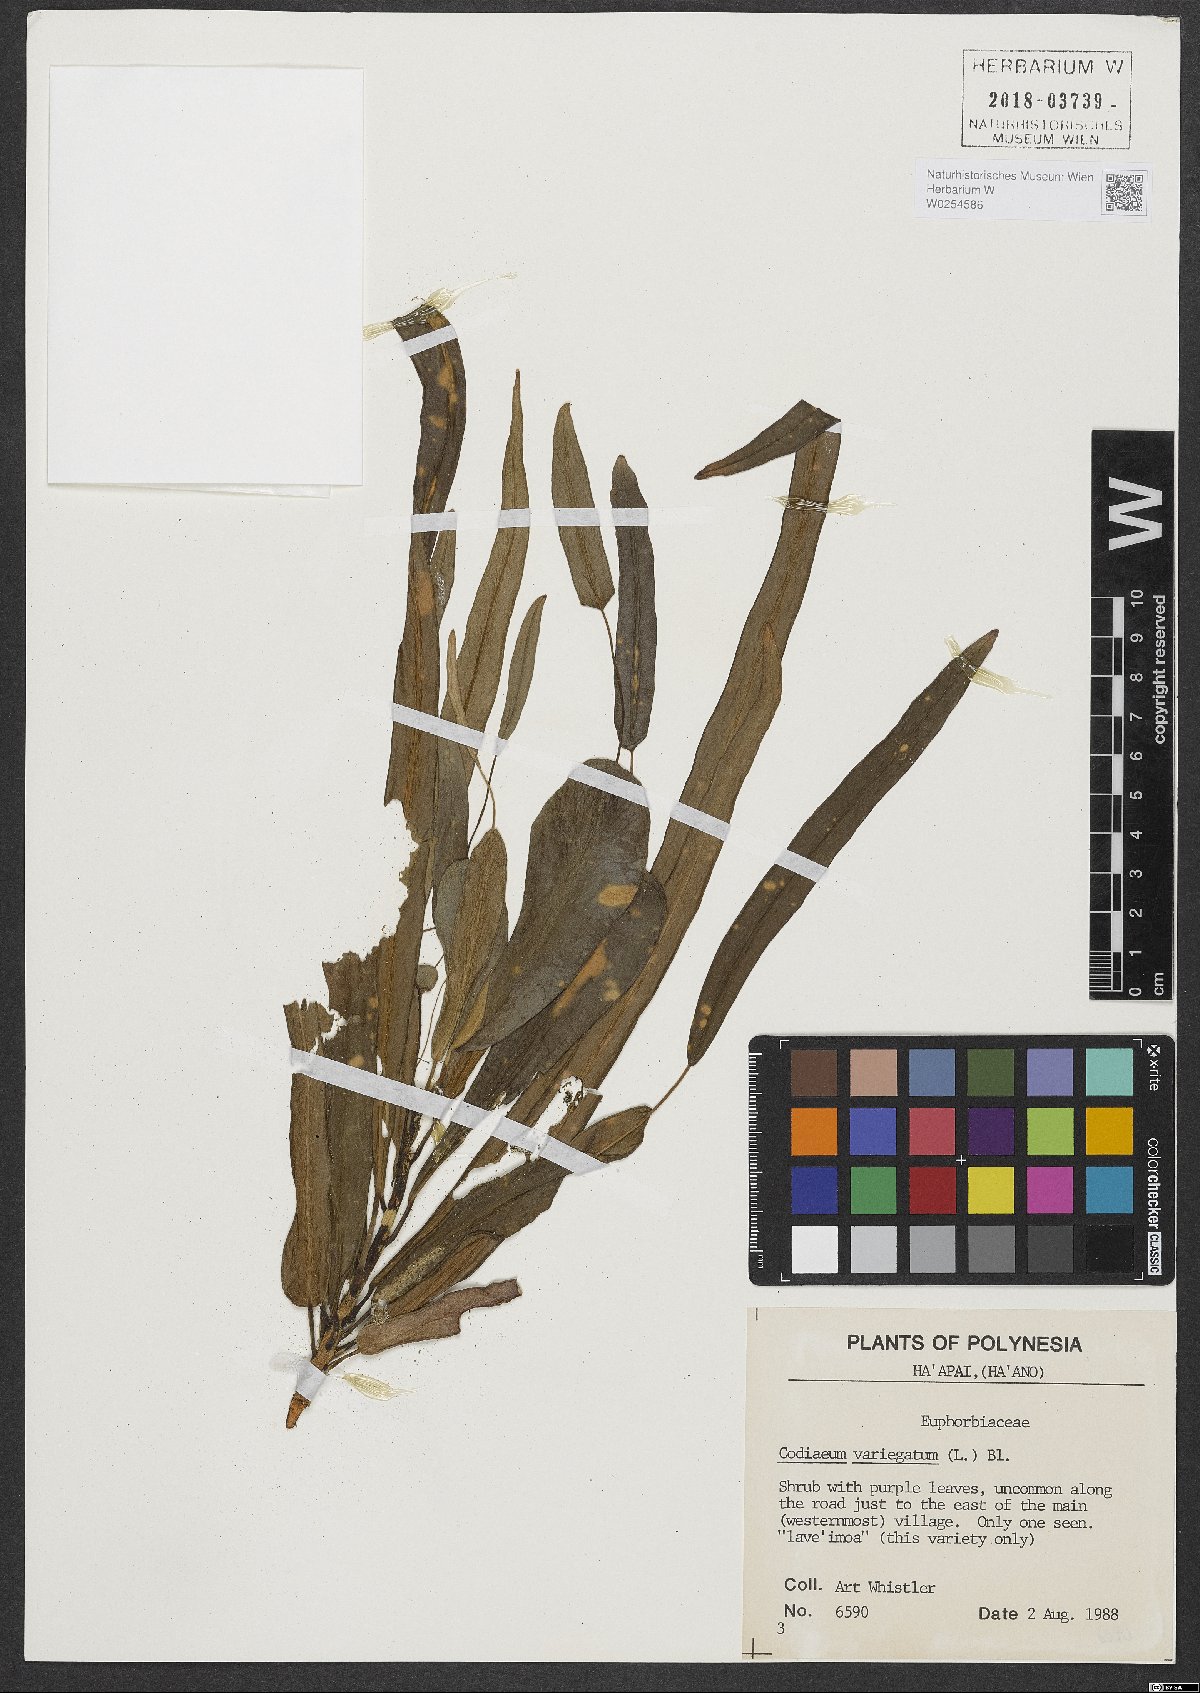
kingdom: Plantae
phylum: Tracheophyta
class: Magnoliopsida
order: Malpighiales
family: Euphorbiaceae
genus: Codiaeum
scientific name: Codiaeum variegatum
